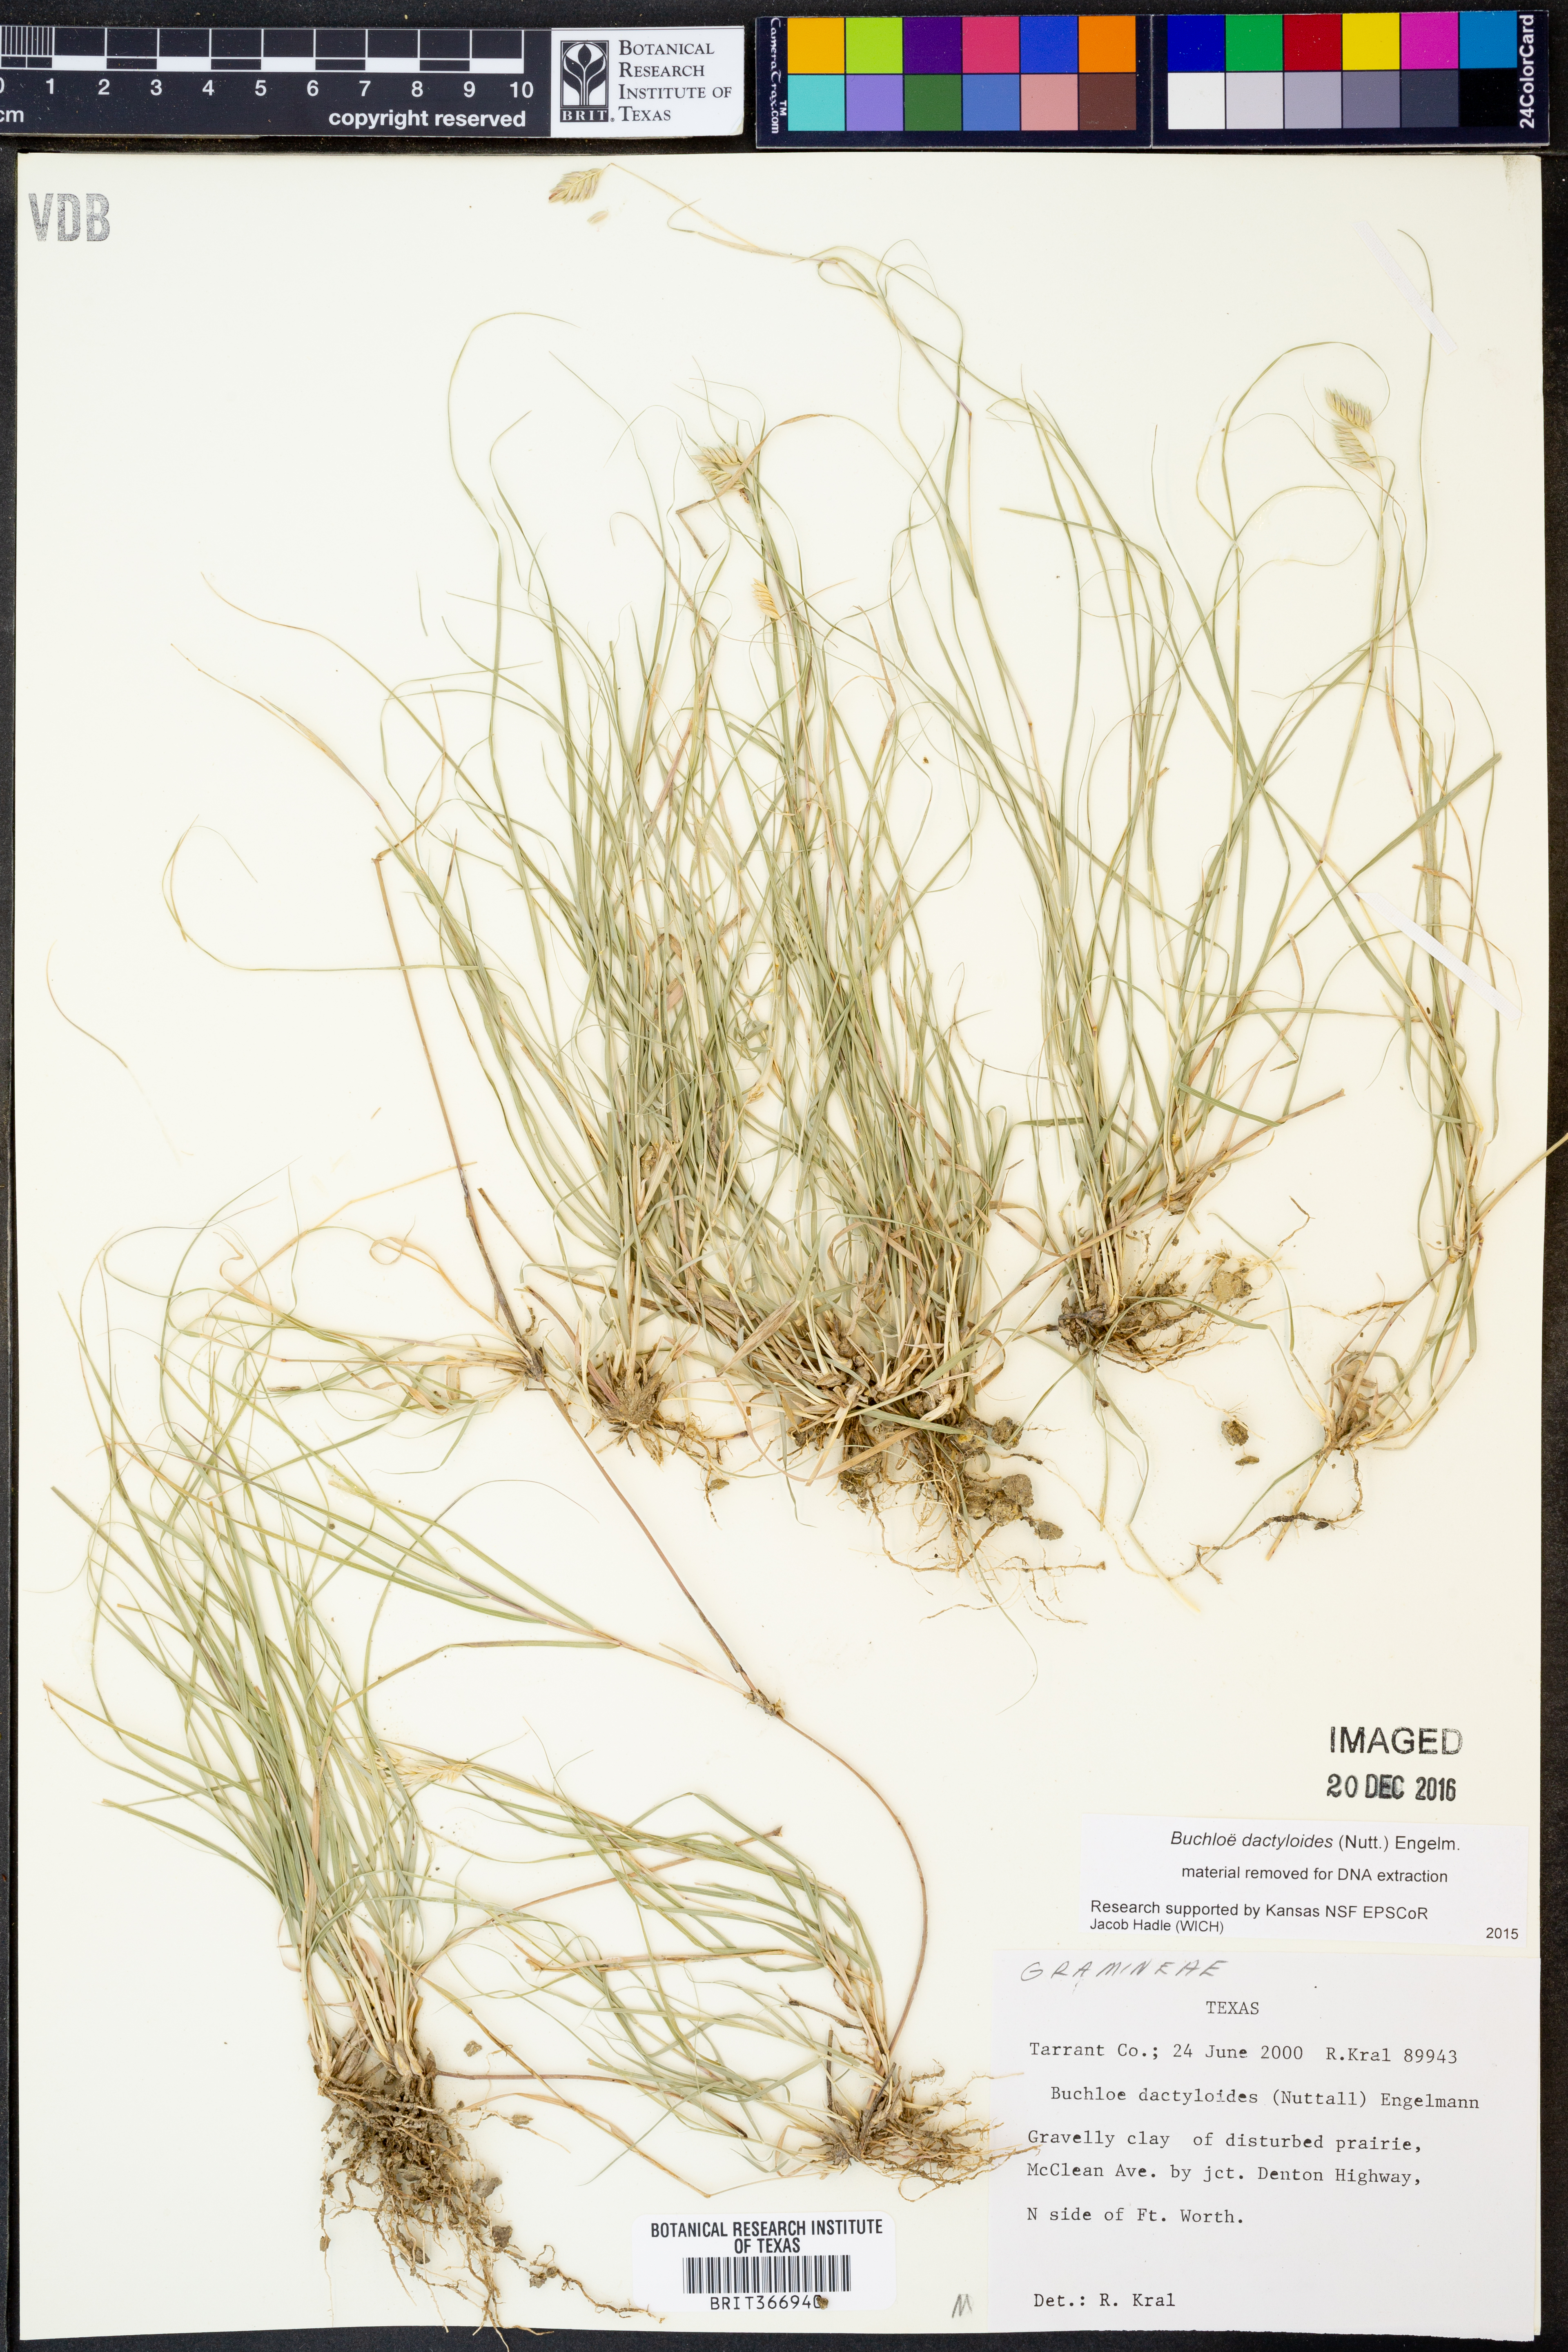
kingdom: Plantae
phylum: Tracheophyta
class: Liliopsida
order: Poales
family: Poaceae
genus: Bouteloua
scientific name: Bouteloua dactyloides
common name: Buffalo grass
